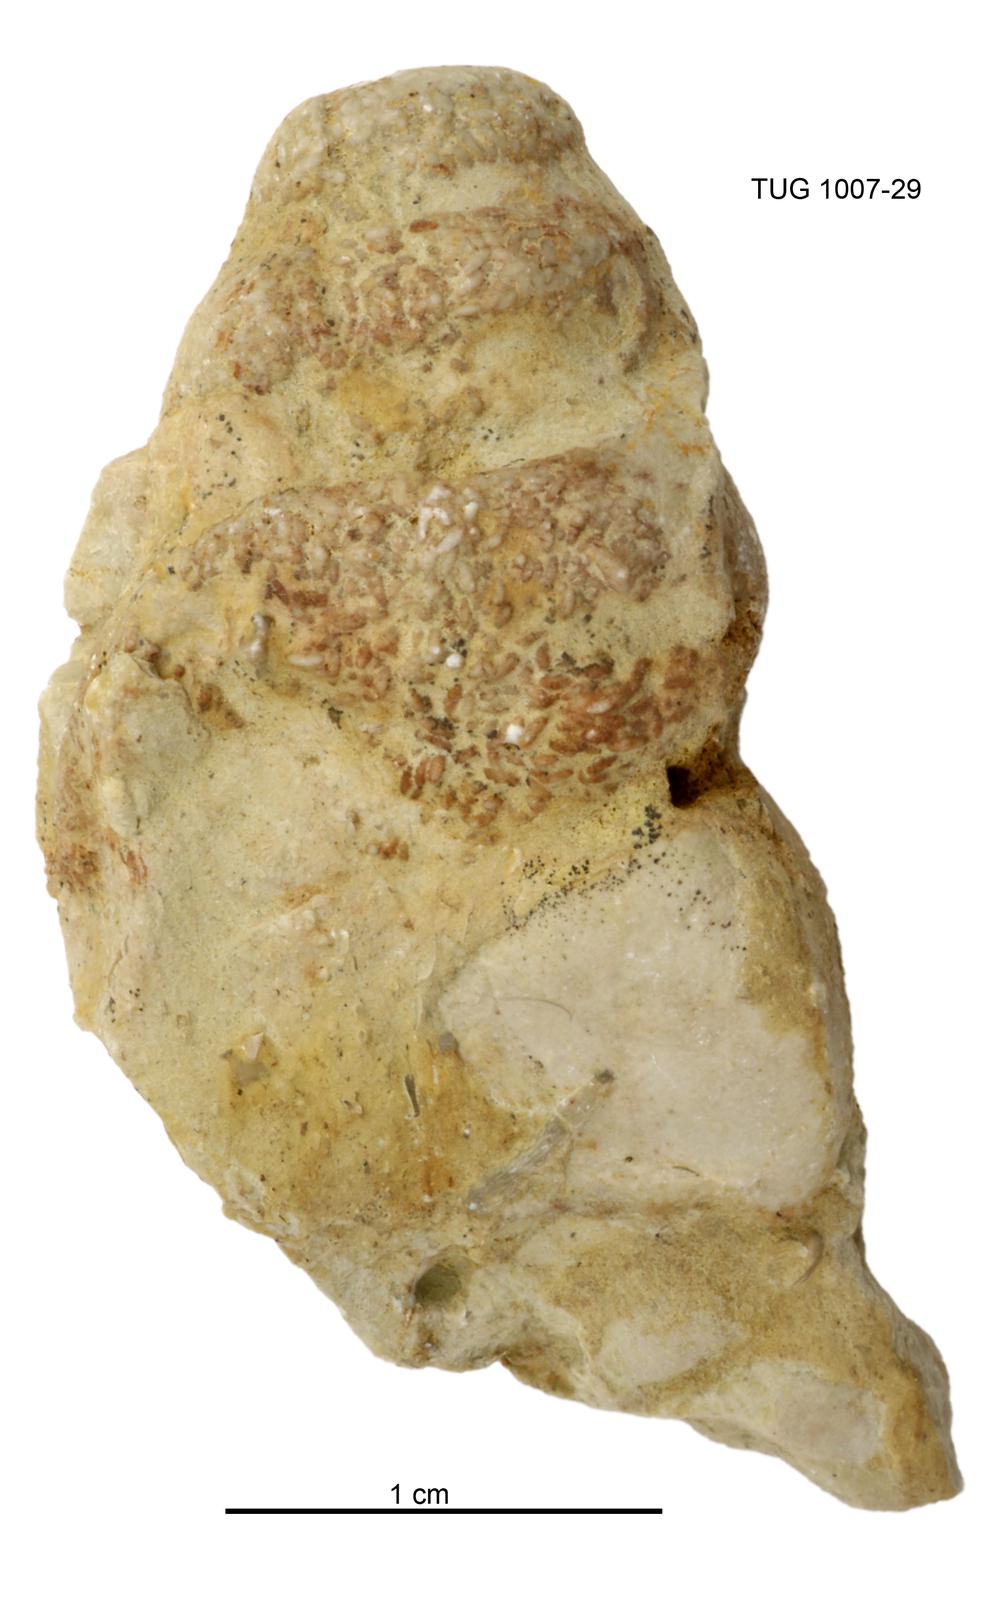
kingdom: Animalia
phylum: Mollusca
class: Gastropoda
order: Pleurotomariida
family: Murchisoniidae
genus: Murchisonia
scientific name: Murchisonia insignis
